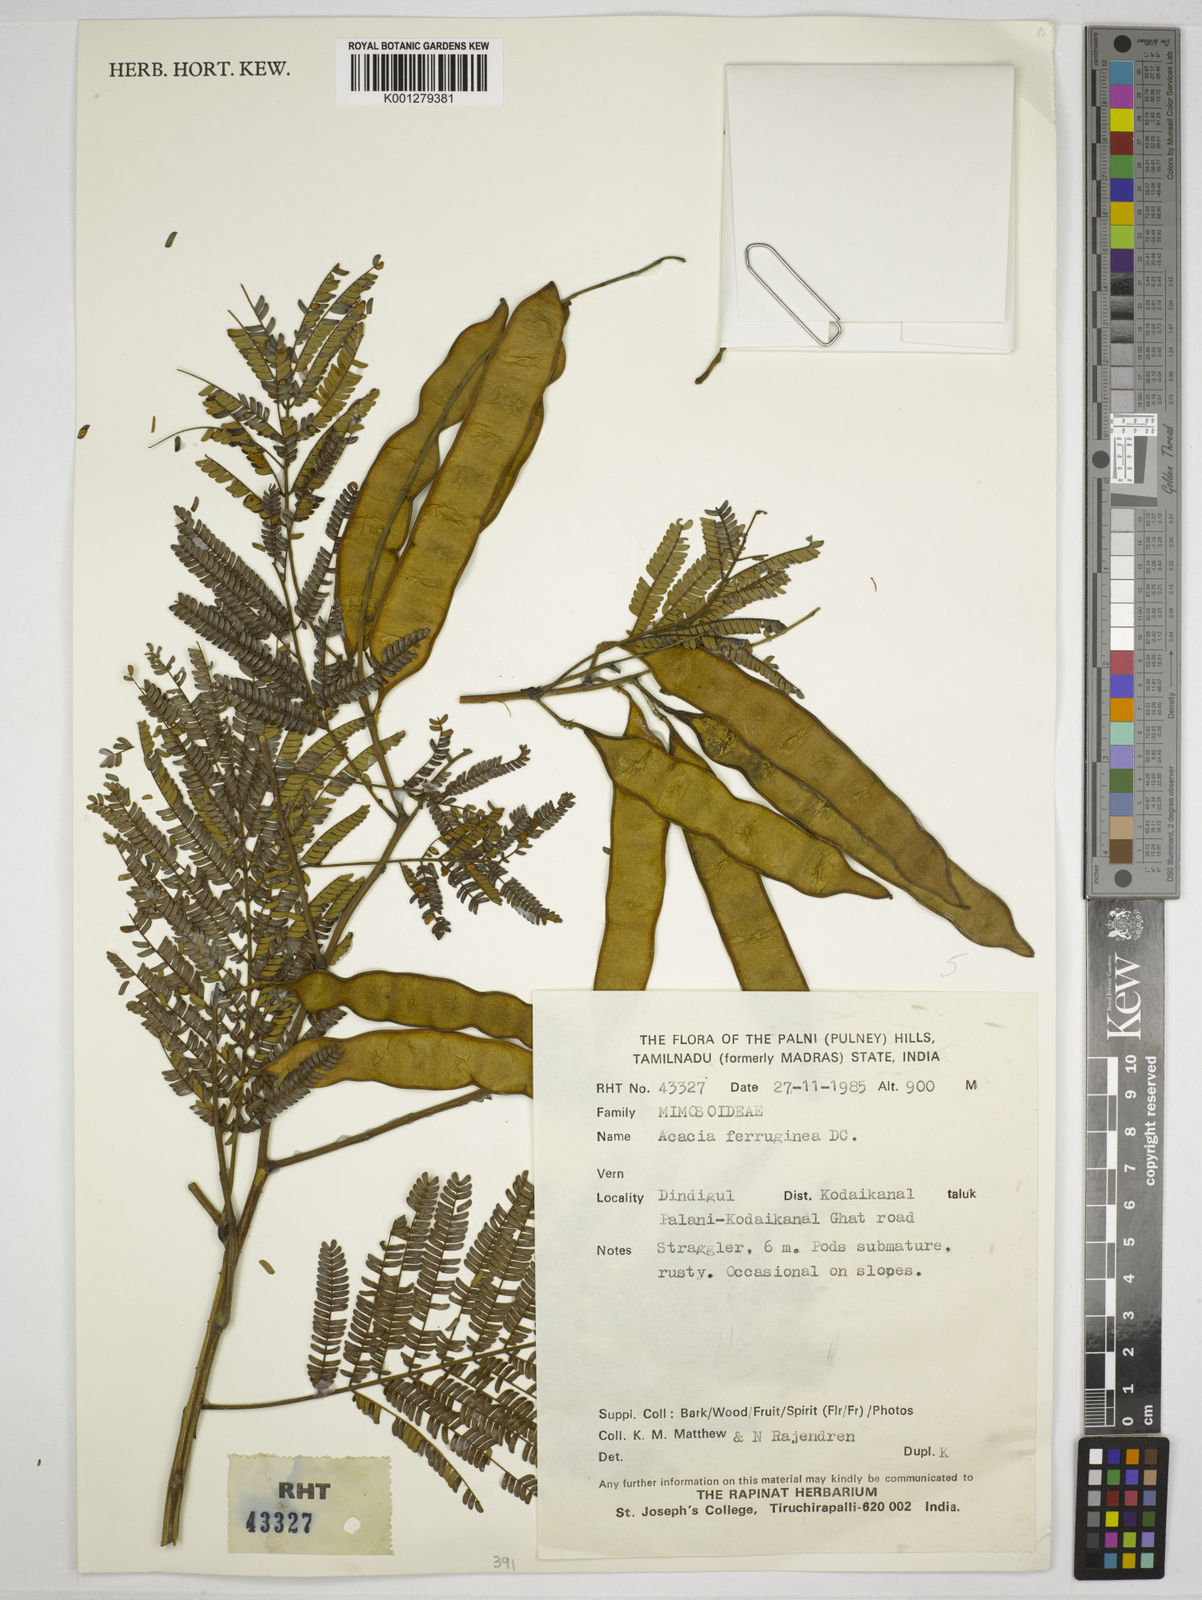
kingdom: Plantae
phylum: Tracheophyta
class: Magnoliopsida
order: Fabales
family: Fabaceae
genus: Senegalia
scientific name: Senegalia ferruginea
